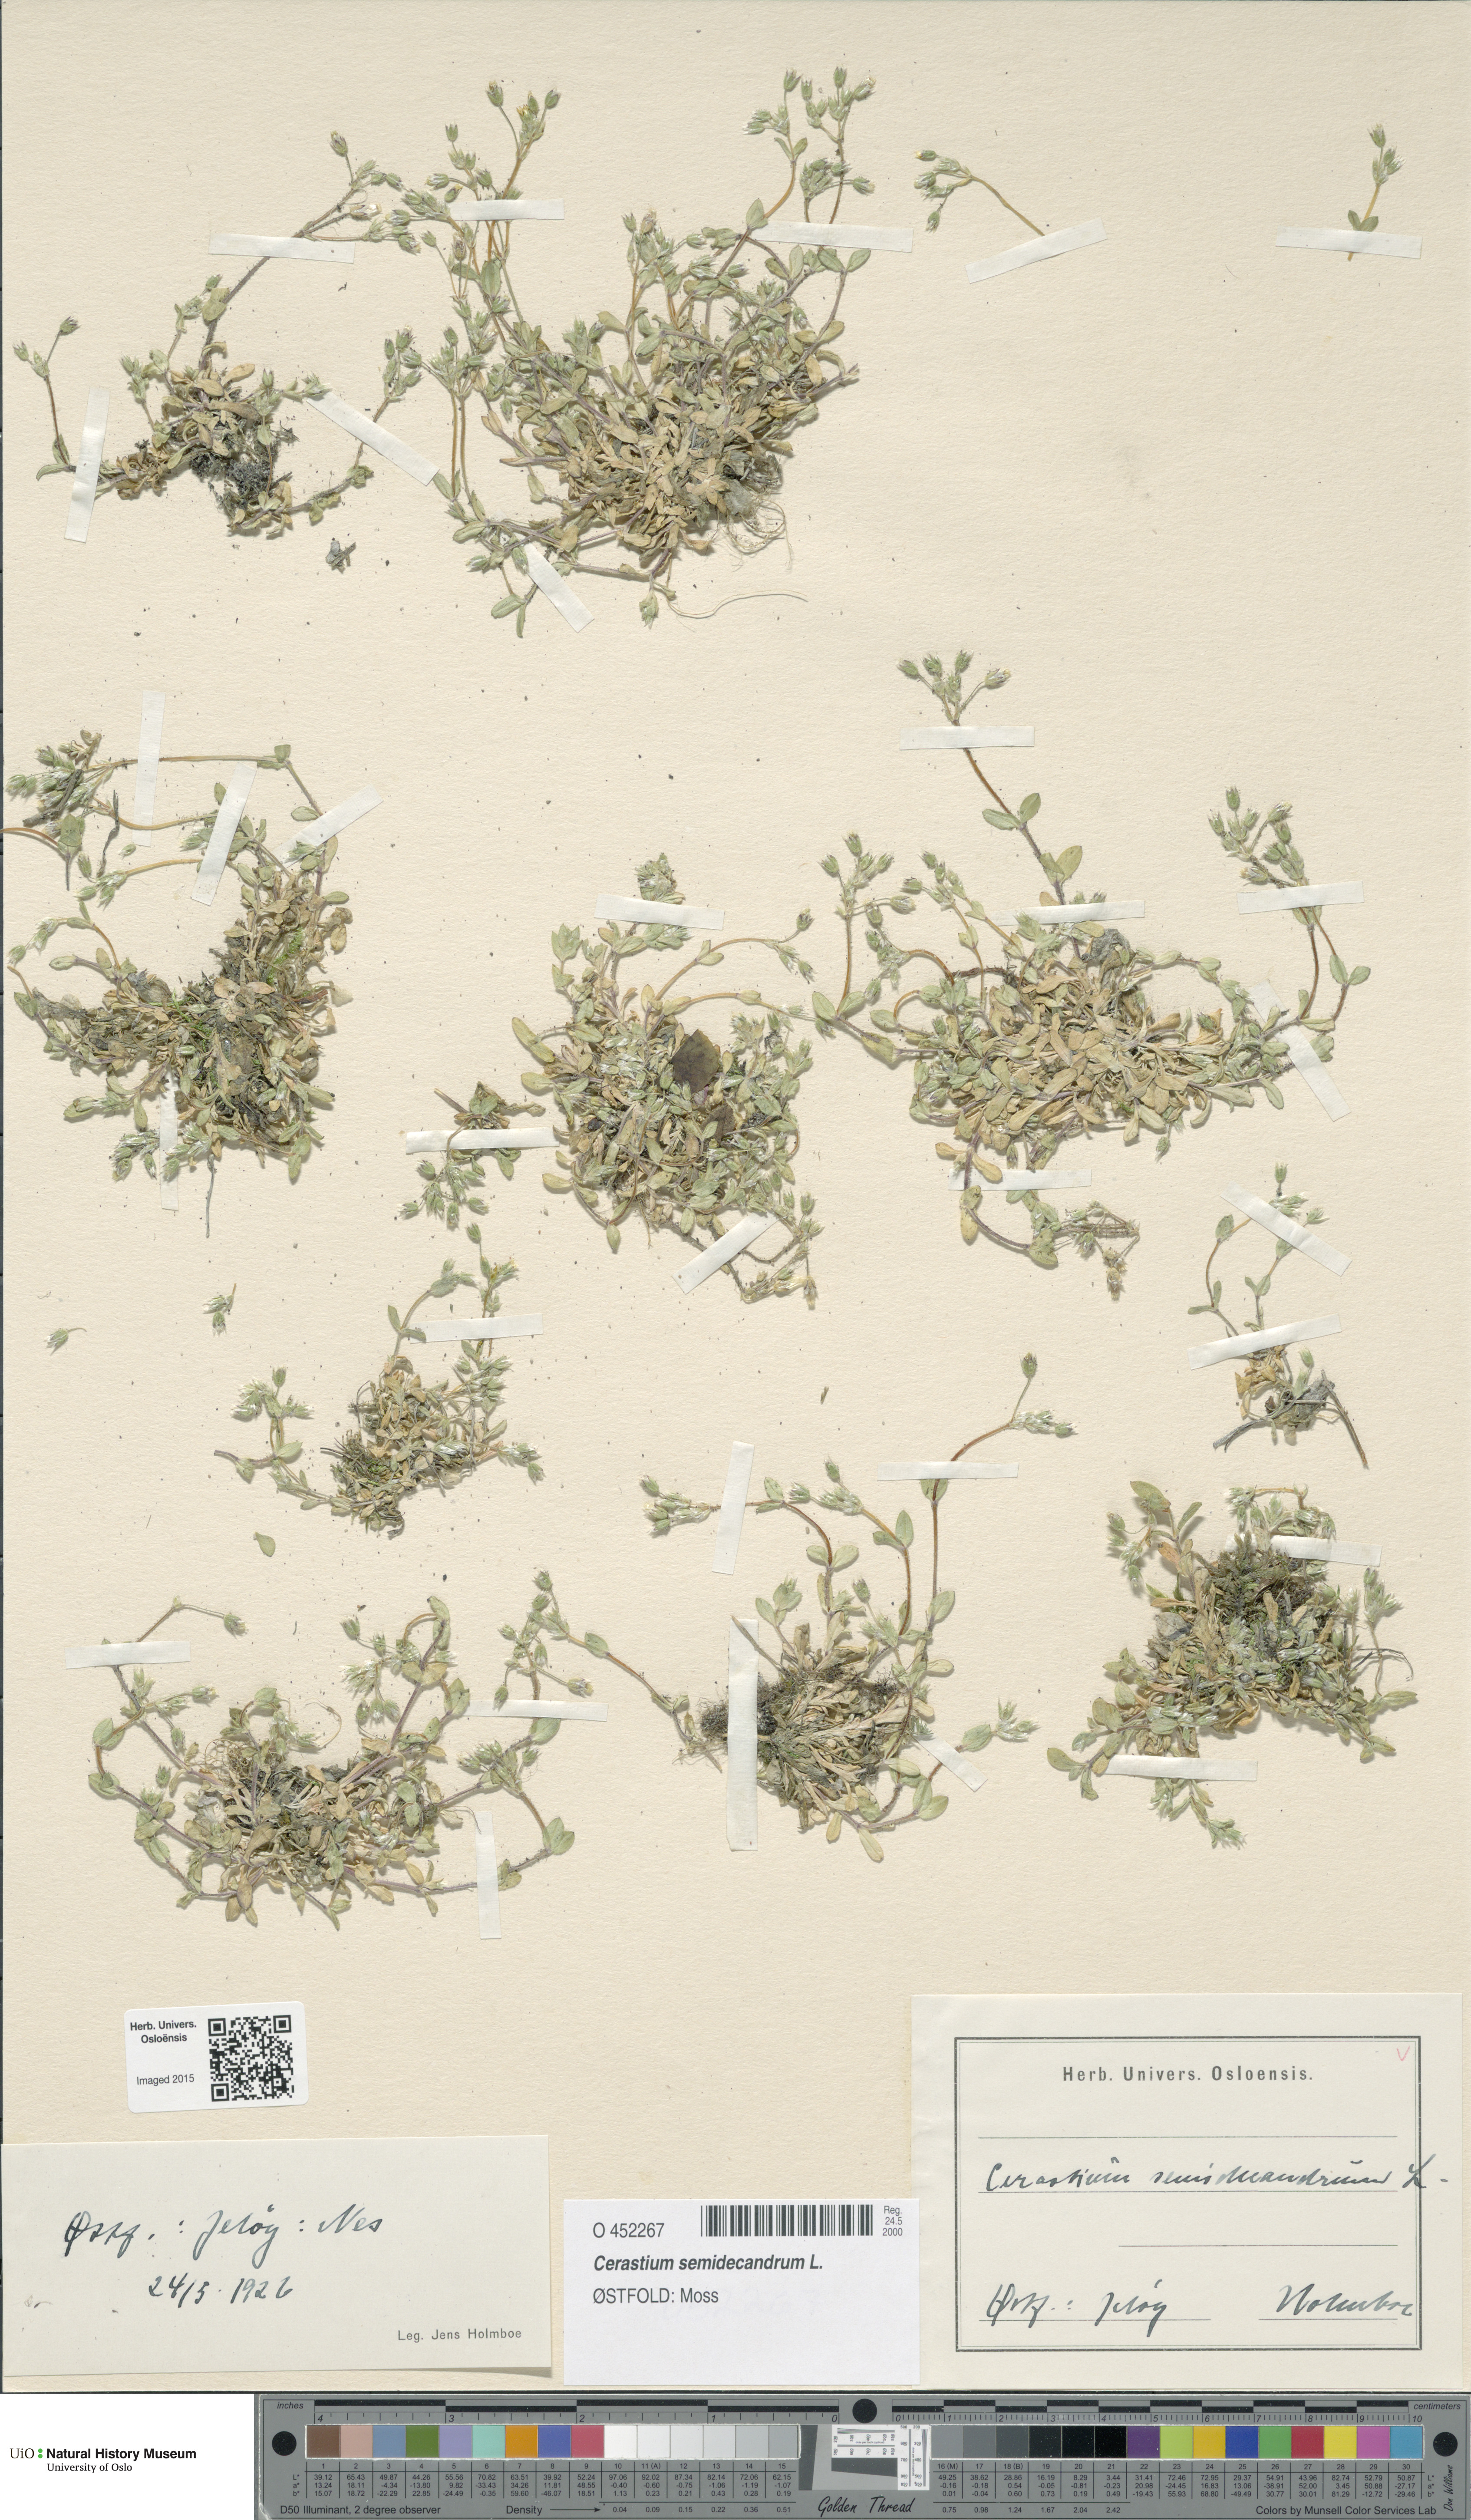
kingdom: Plantae
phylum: Tracheophyta
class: Magnoliopsida
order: Caryophyllales
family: Caryophyllaceae
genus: Cerastium
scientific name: Cerastium semidecandrum
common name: Little mouse-ear
